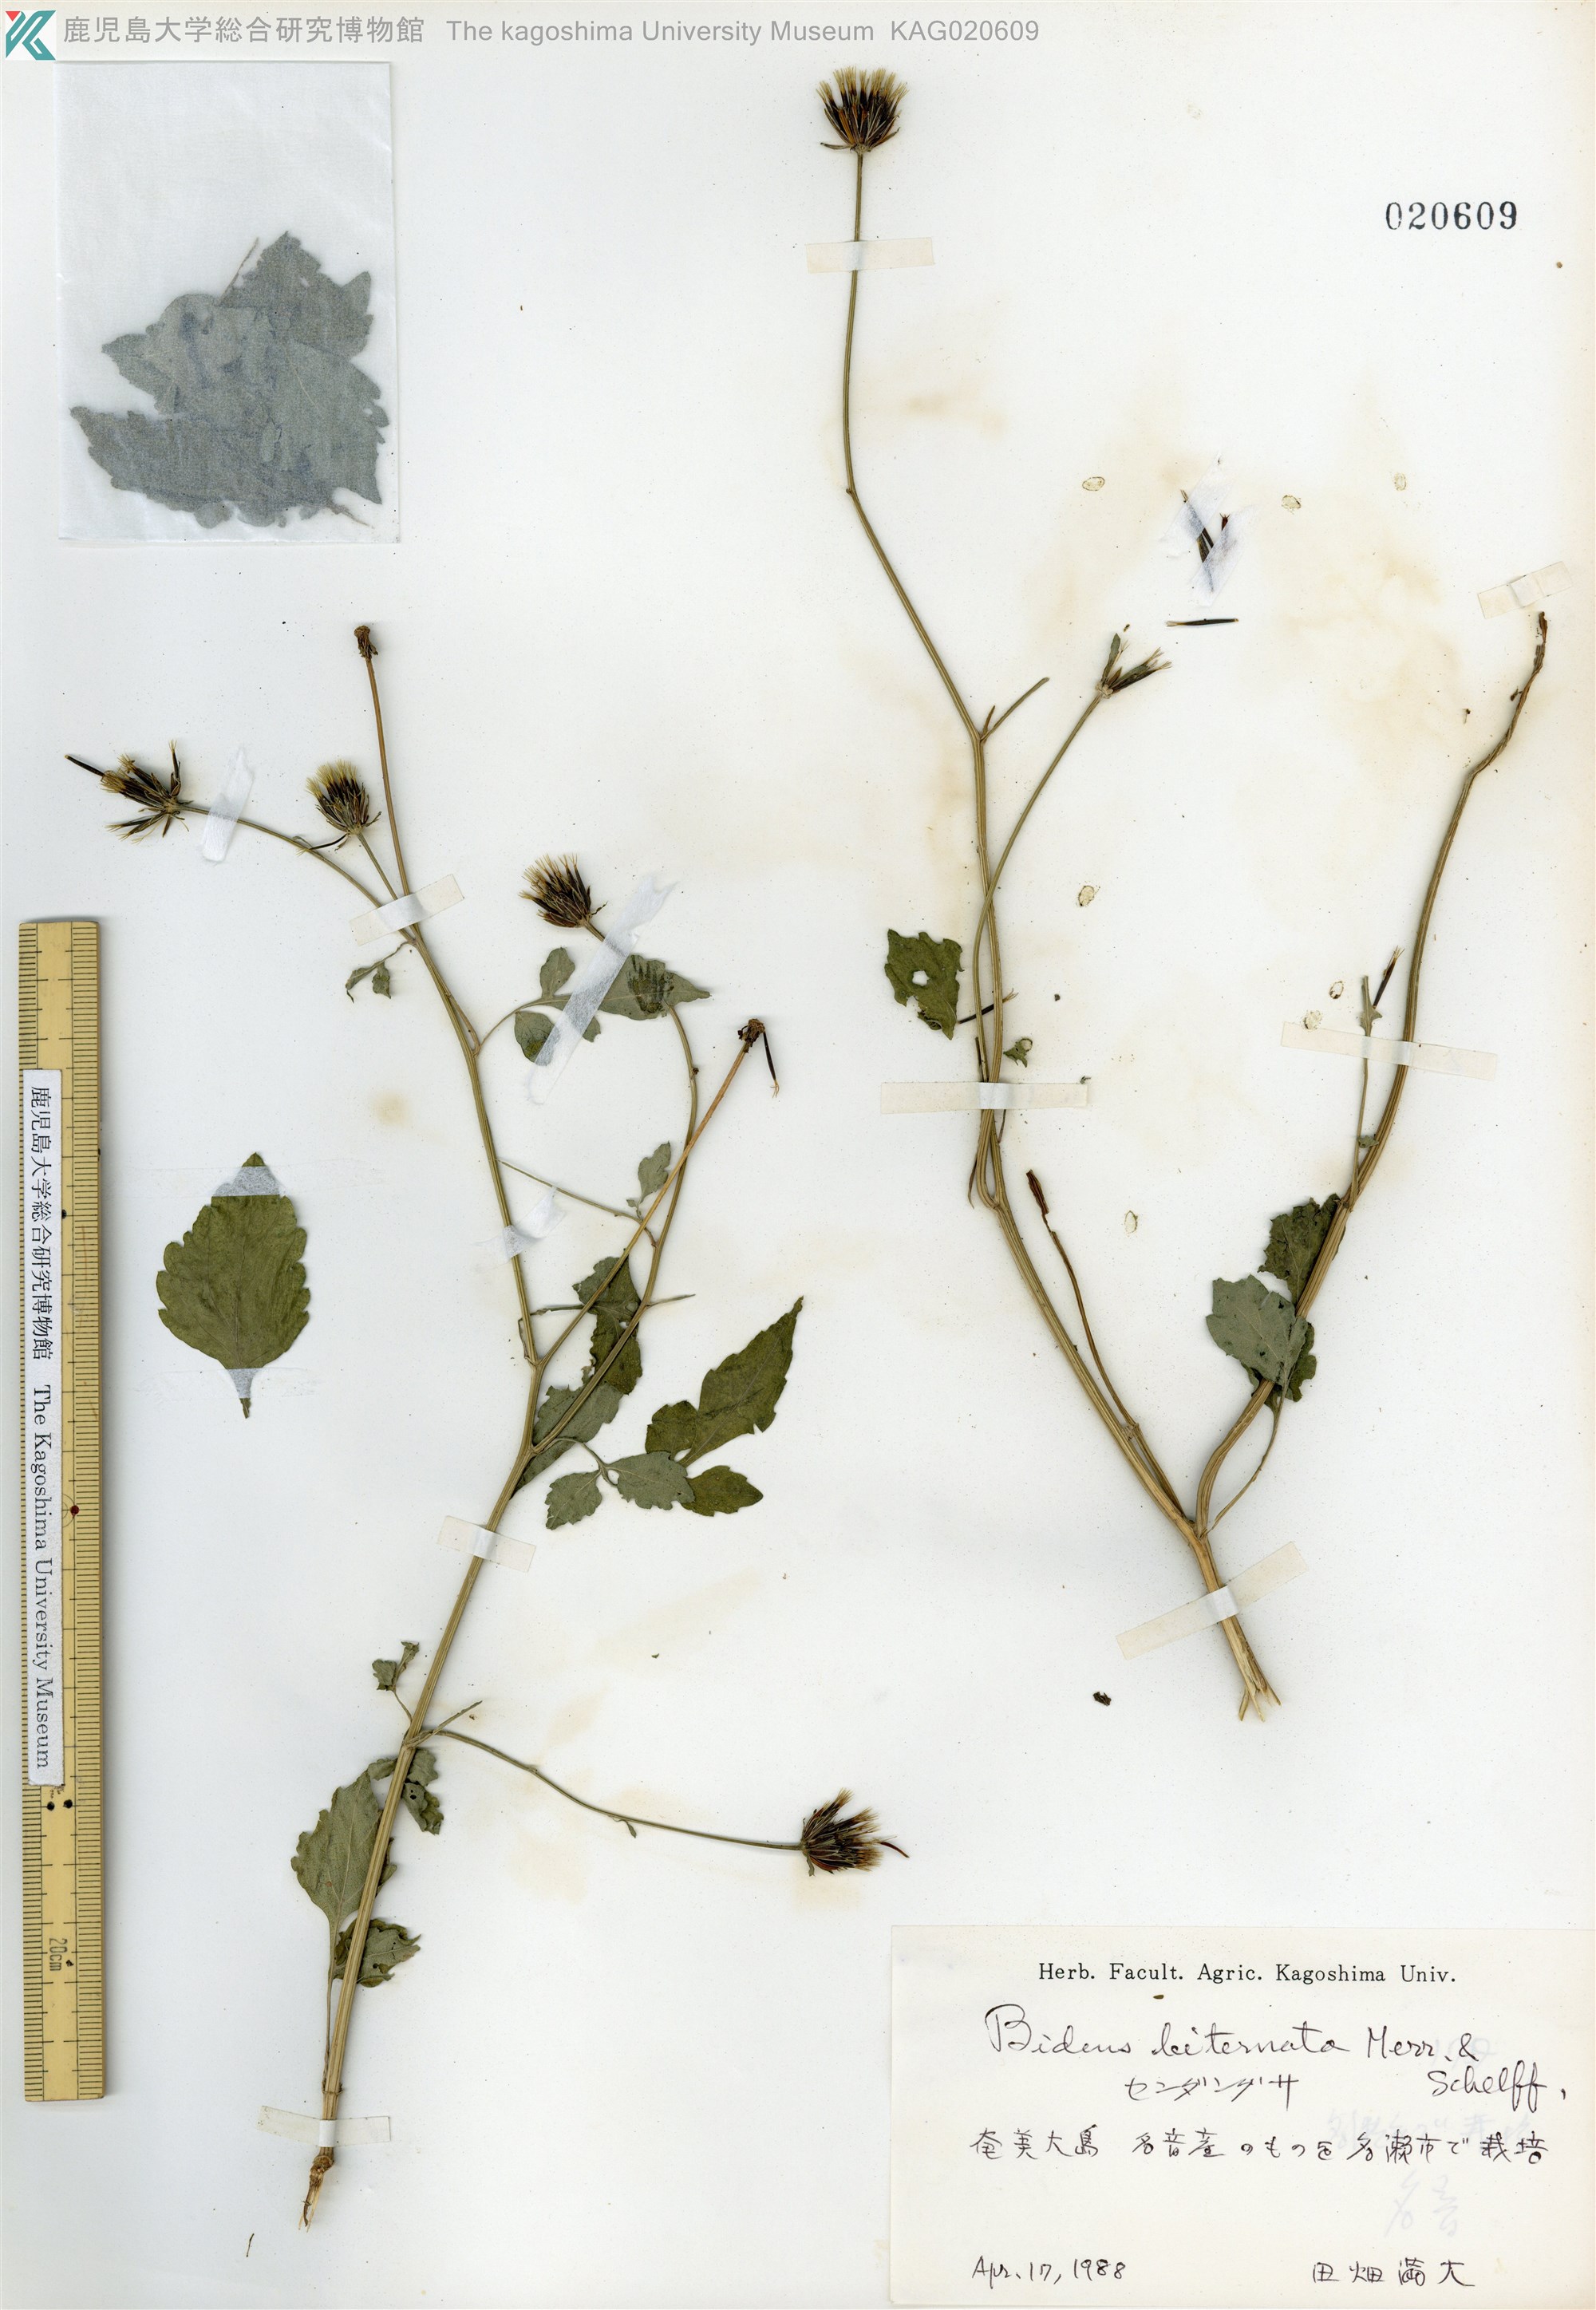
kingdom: Plantae
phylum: Tracheophyta
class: Magnoliopsida
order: Asterales
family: Asteraceae
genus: Bidens
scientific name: Bidens biternata
